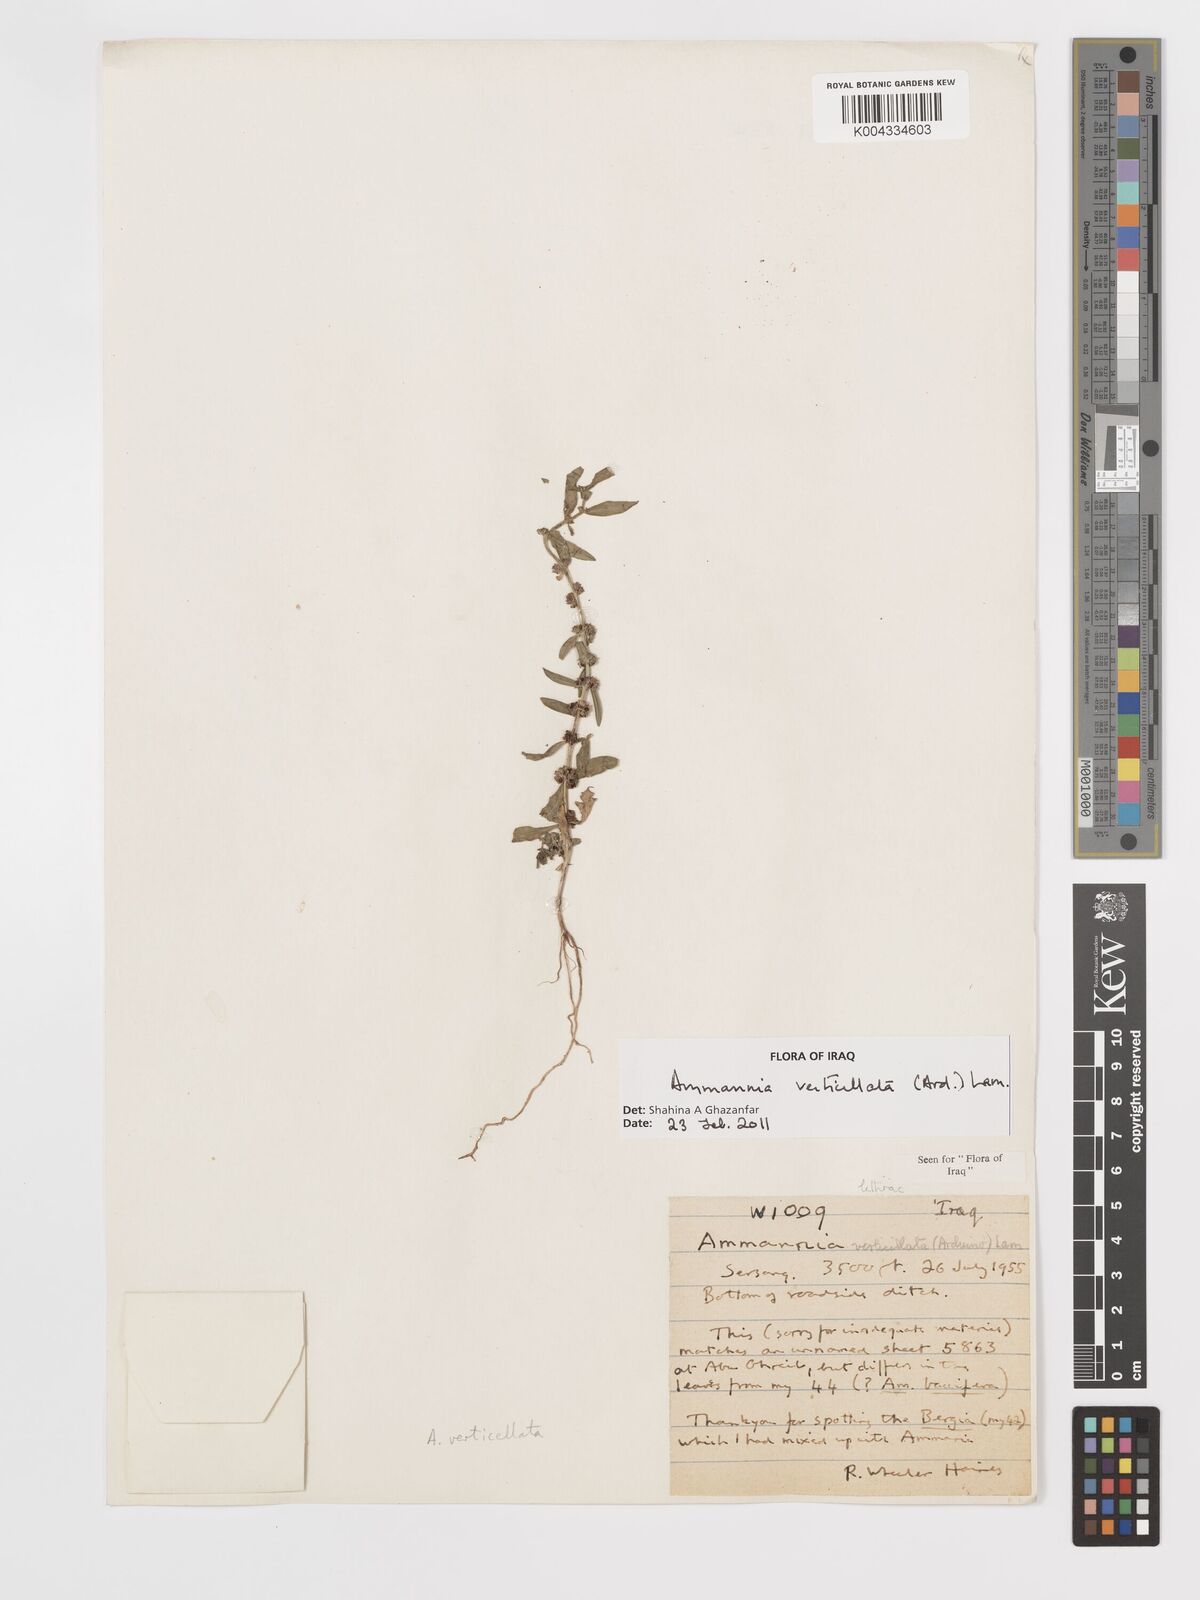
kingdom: Plantae
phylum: Tracheophyta
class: Magnoliopsida
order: Myrtales
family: Lythraceae
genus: Ammannia
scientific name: Ammannia baccifera
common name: Blistering ammania
